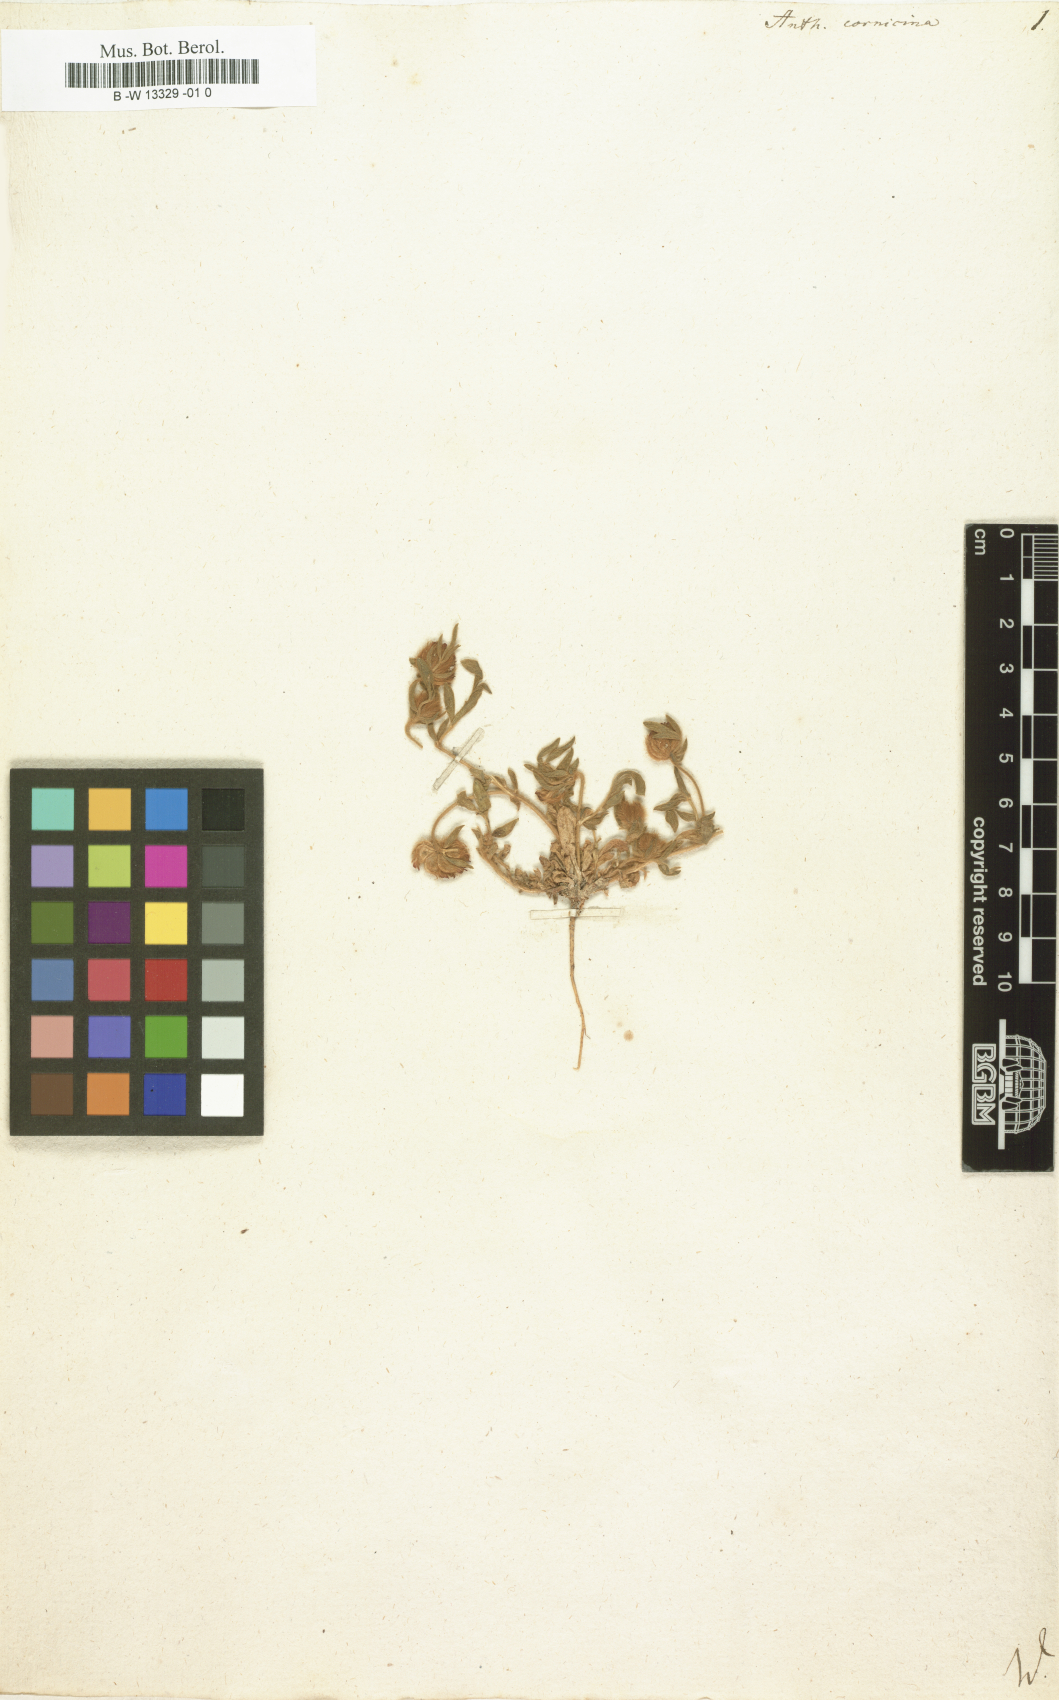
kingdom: Plantae
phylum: Tracheophyta
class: Magnoliopsida
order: Fabales
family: Fabaceae
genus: Anthyllis
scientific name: Anthyllis cornicina
